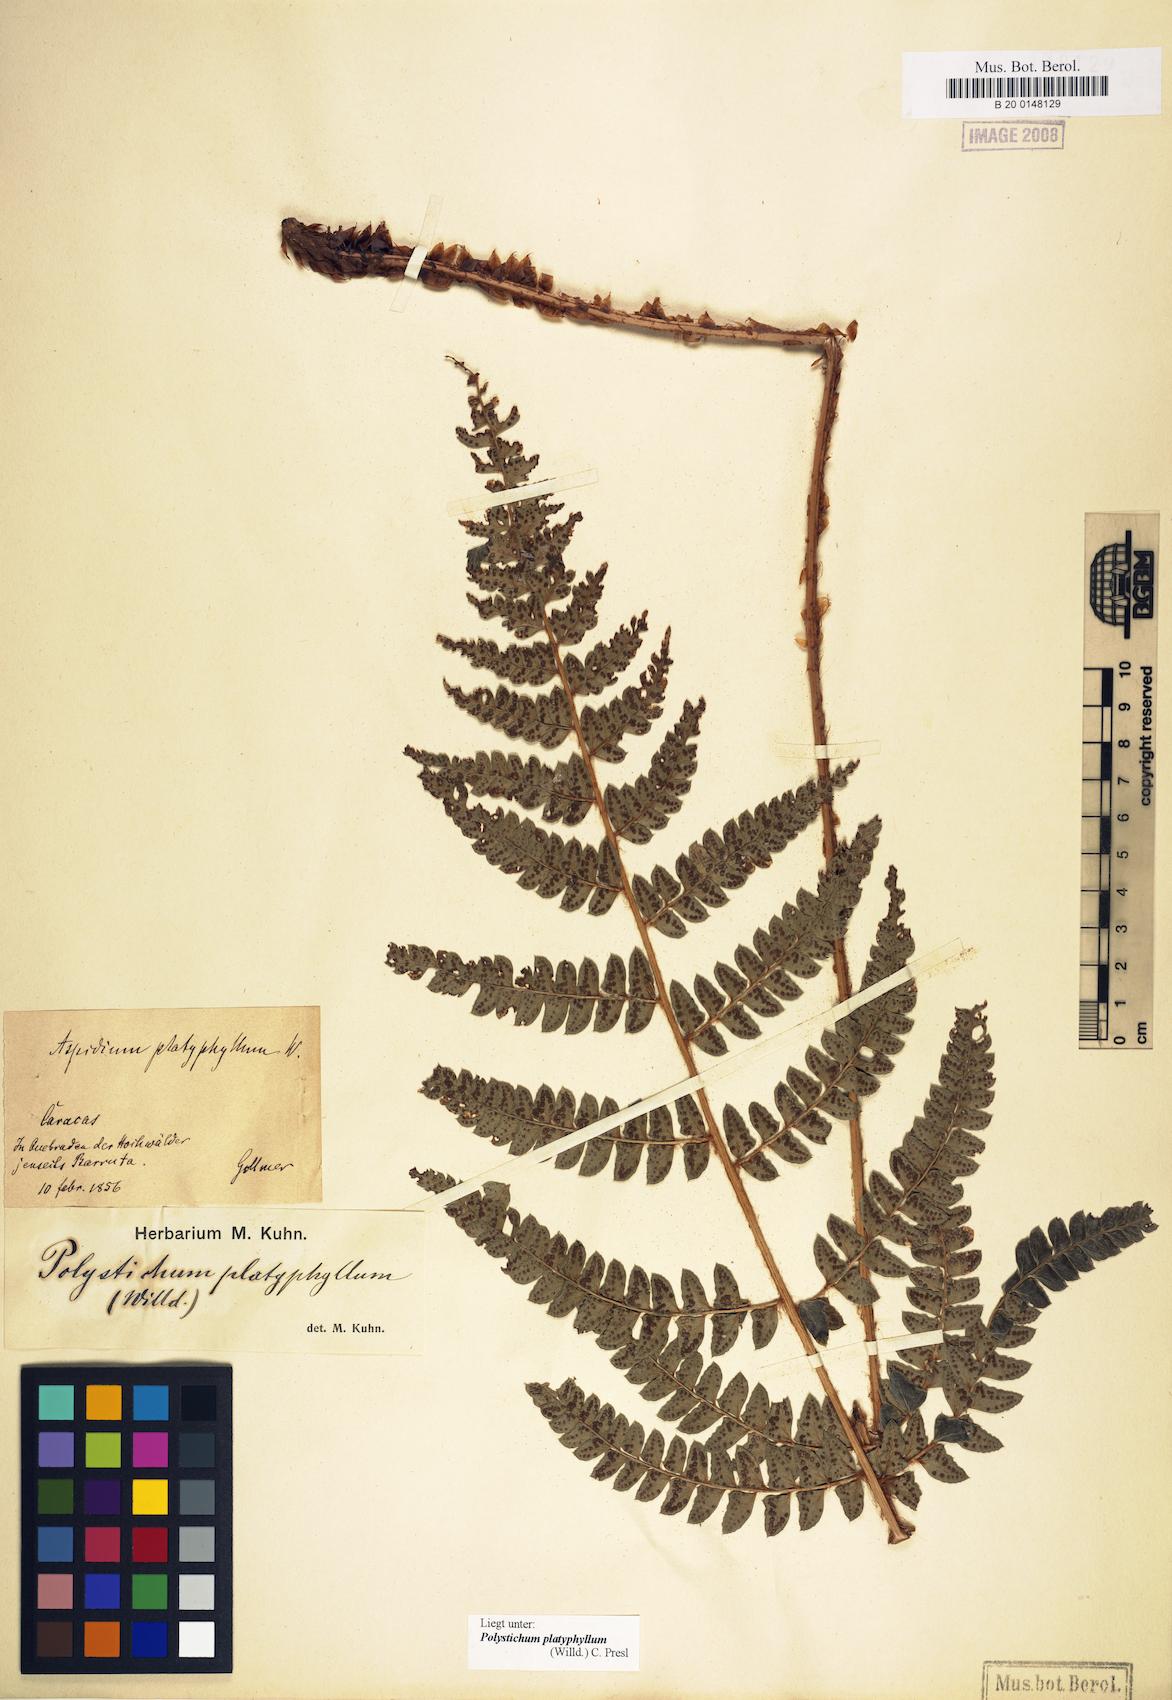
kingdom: Plantae
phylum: Tracheophyta
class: Polypodiopsida
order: Polypodiales
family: Dryopteridaceae
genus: Polystichum
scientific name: Polystichum platyphyllum
